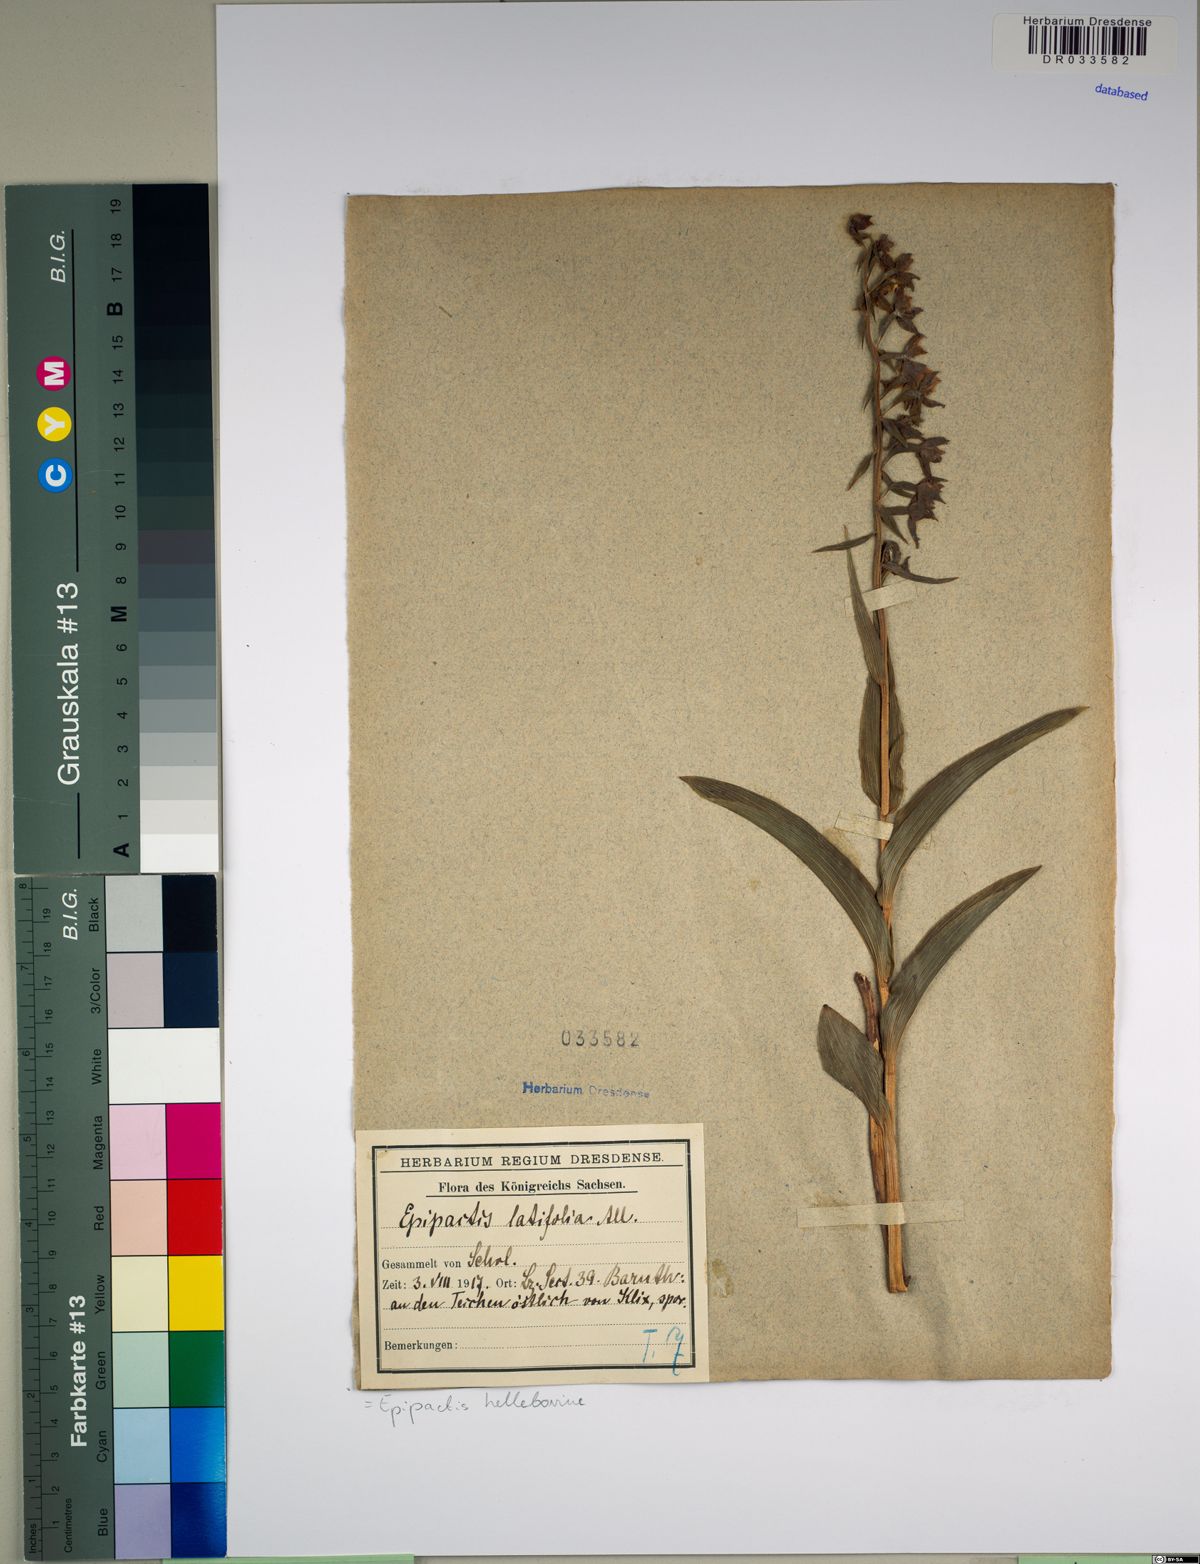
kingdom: Plantae
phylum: Tracheophyta
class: Liliopsida
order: Asparagales
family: Orchidaceae
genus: Epipactis
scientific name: Epipactis helleborine
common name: Broad-leaved helleborine
